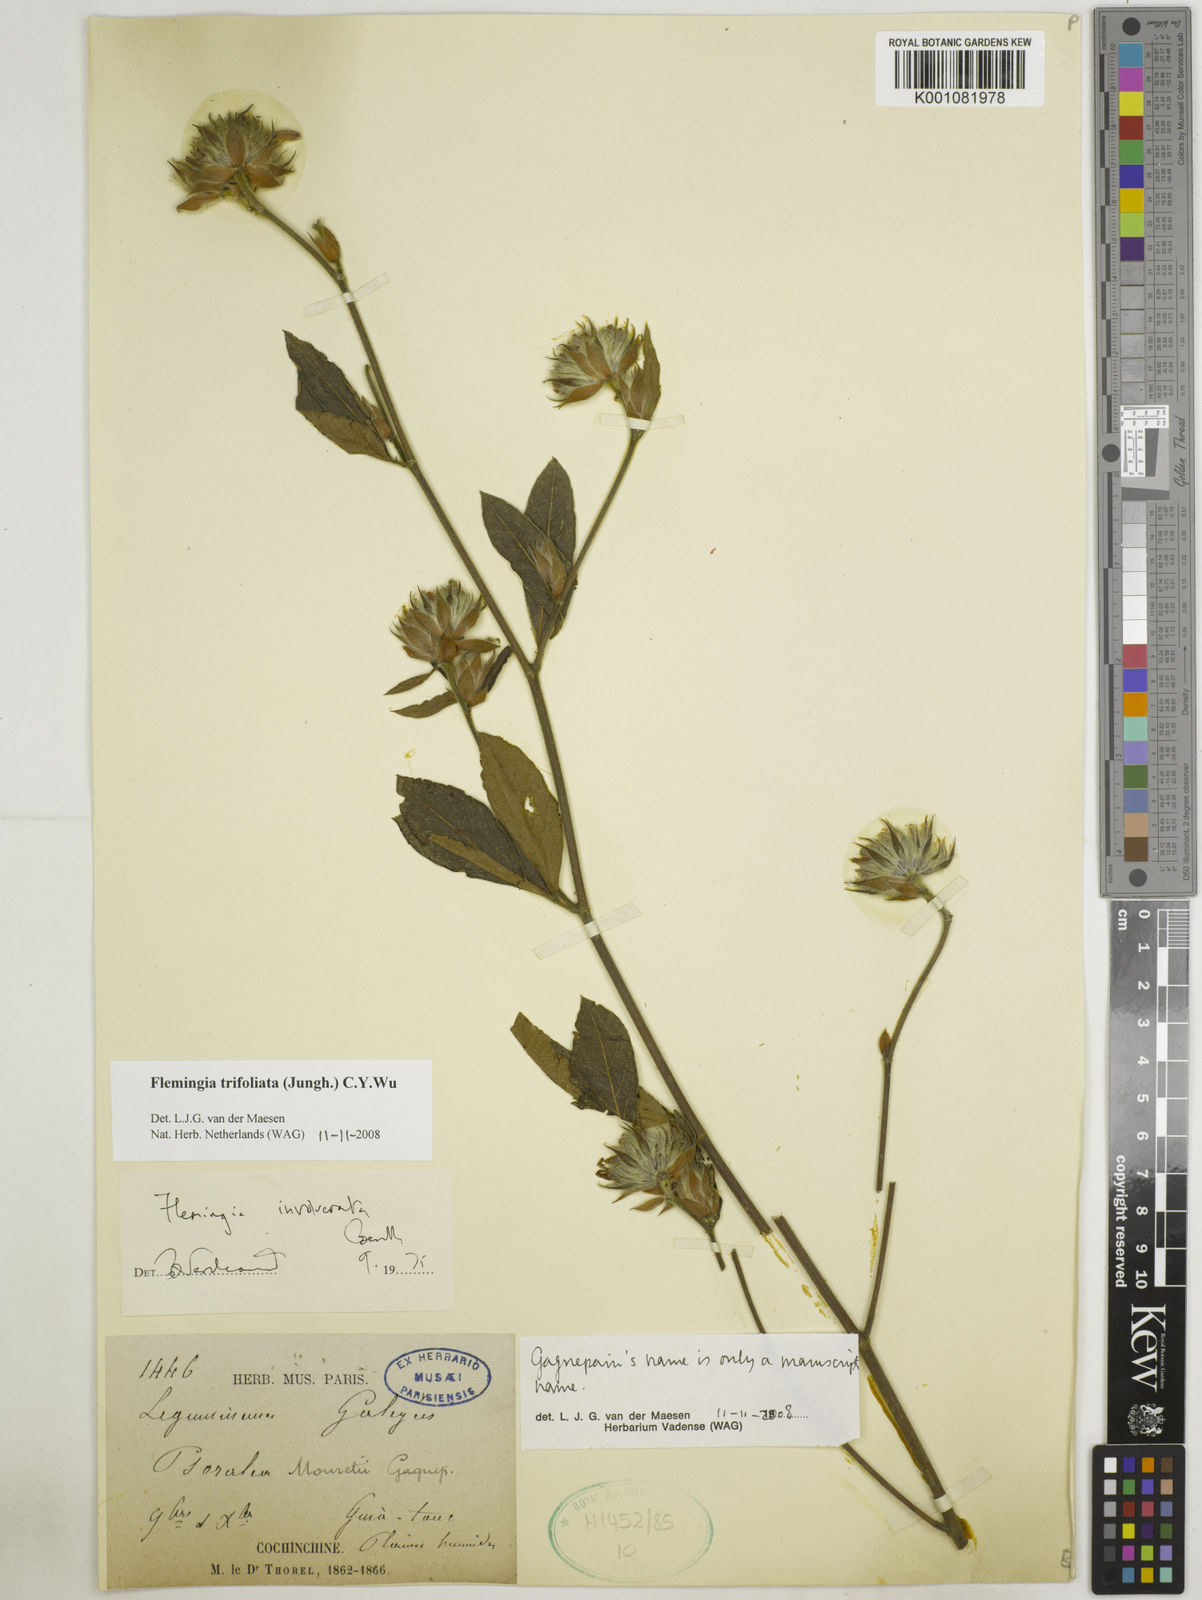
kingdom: Plantae
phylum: Tracheophyta
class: Magnoliopsida
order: Fabales
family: Fabaceae
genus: Flemingia
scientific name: Flemingia trifoliata
